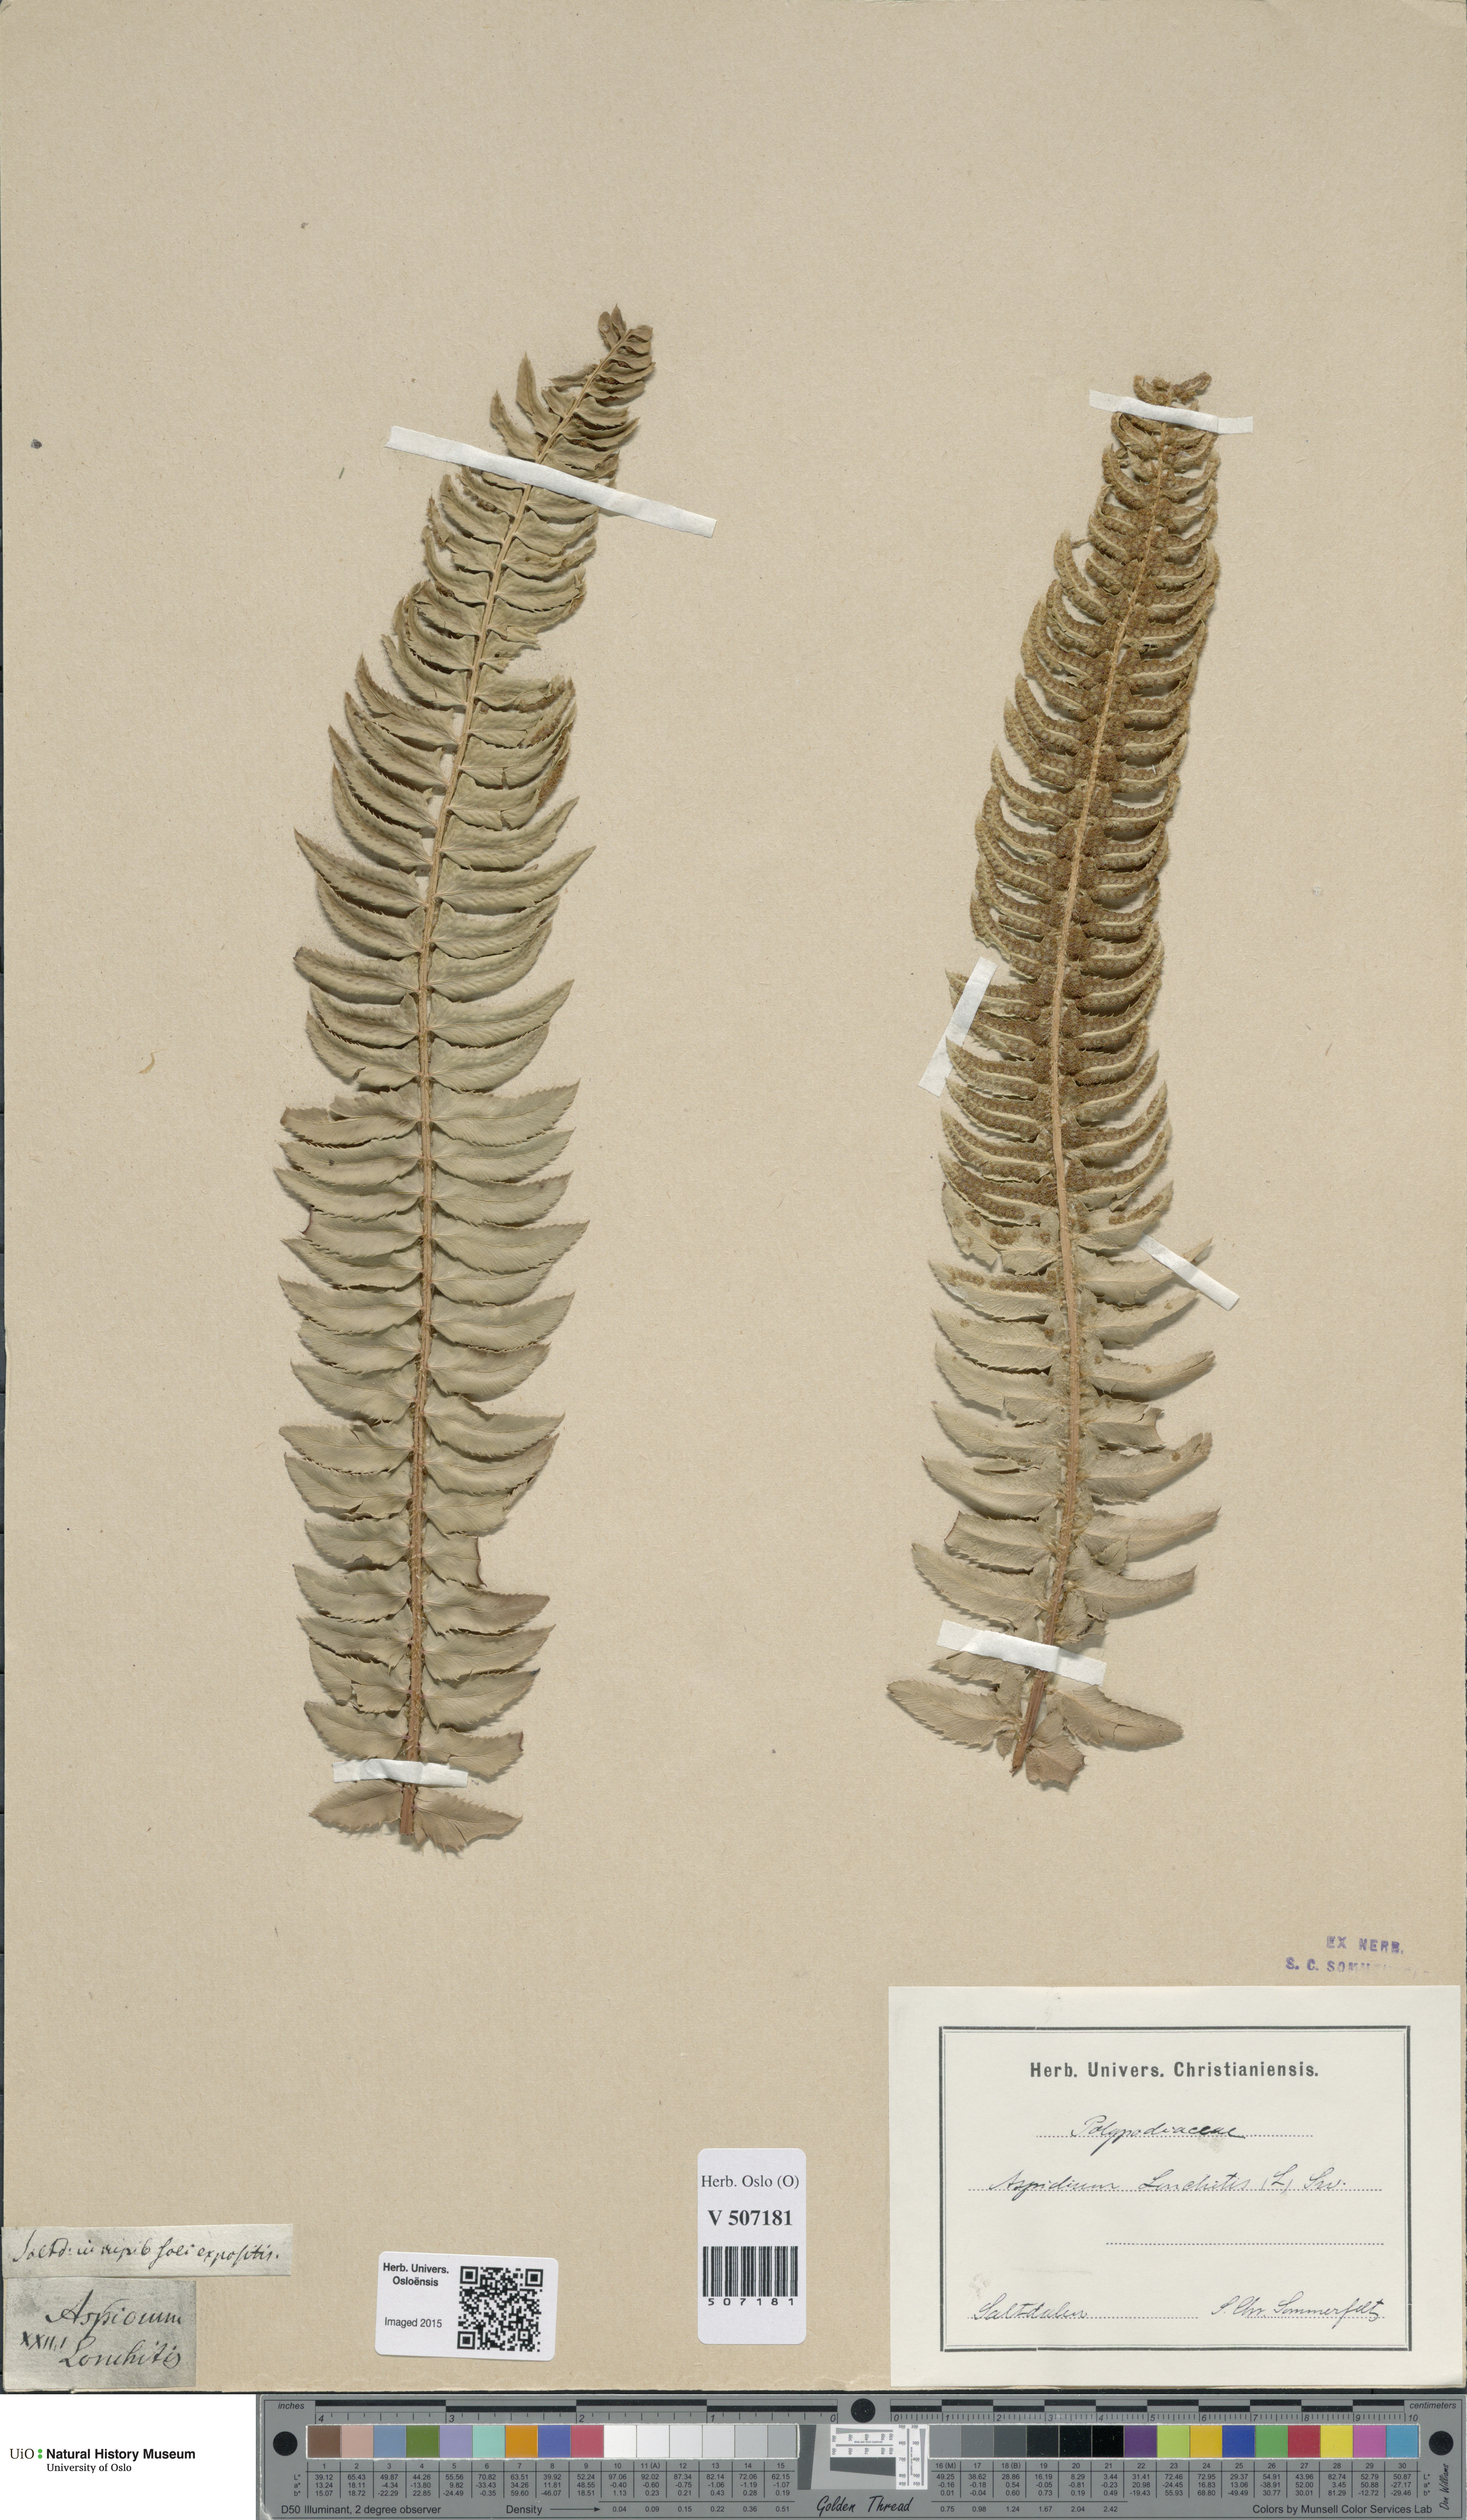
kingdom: Plantae
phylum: Tracheophyta
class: Polypodiopsida
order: Polypodiales
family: Dryopteridaceae
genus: Polystichum
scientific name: Polystichum lonchitis
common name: Holly fern
